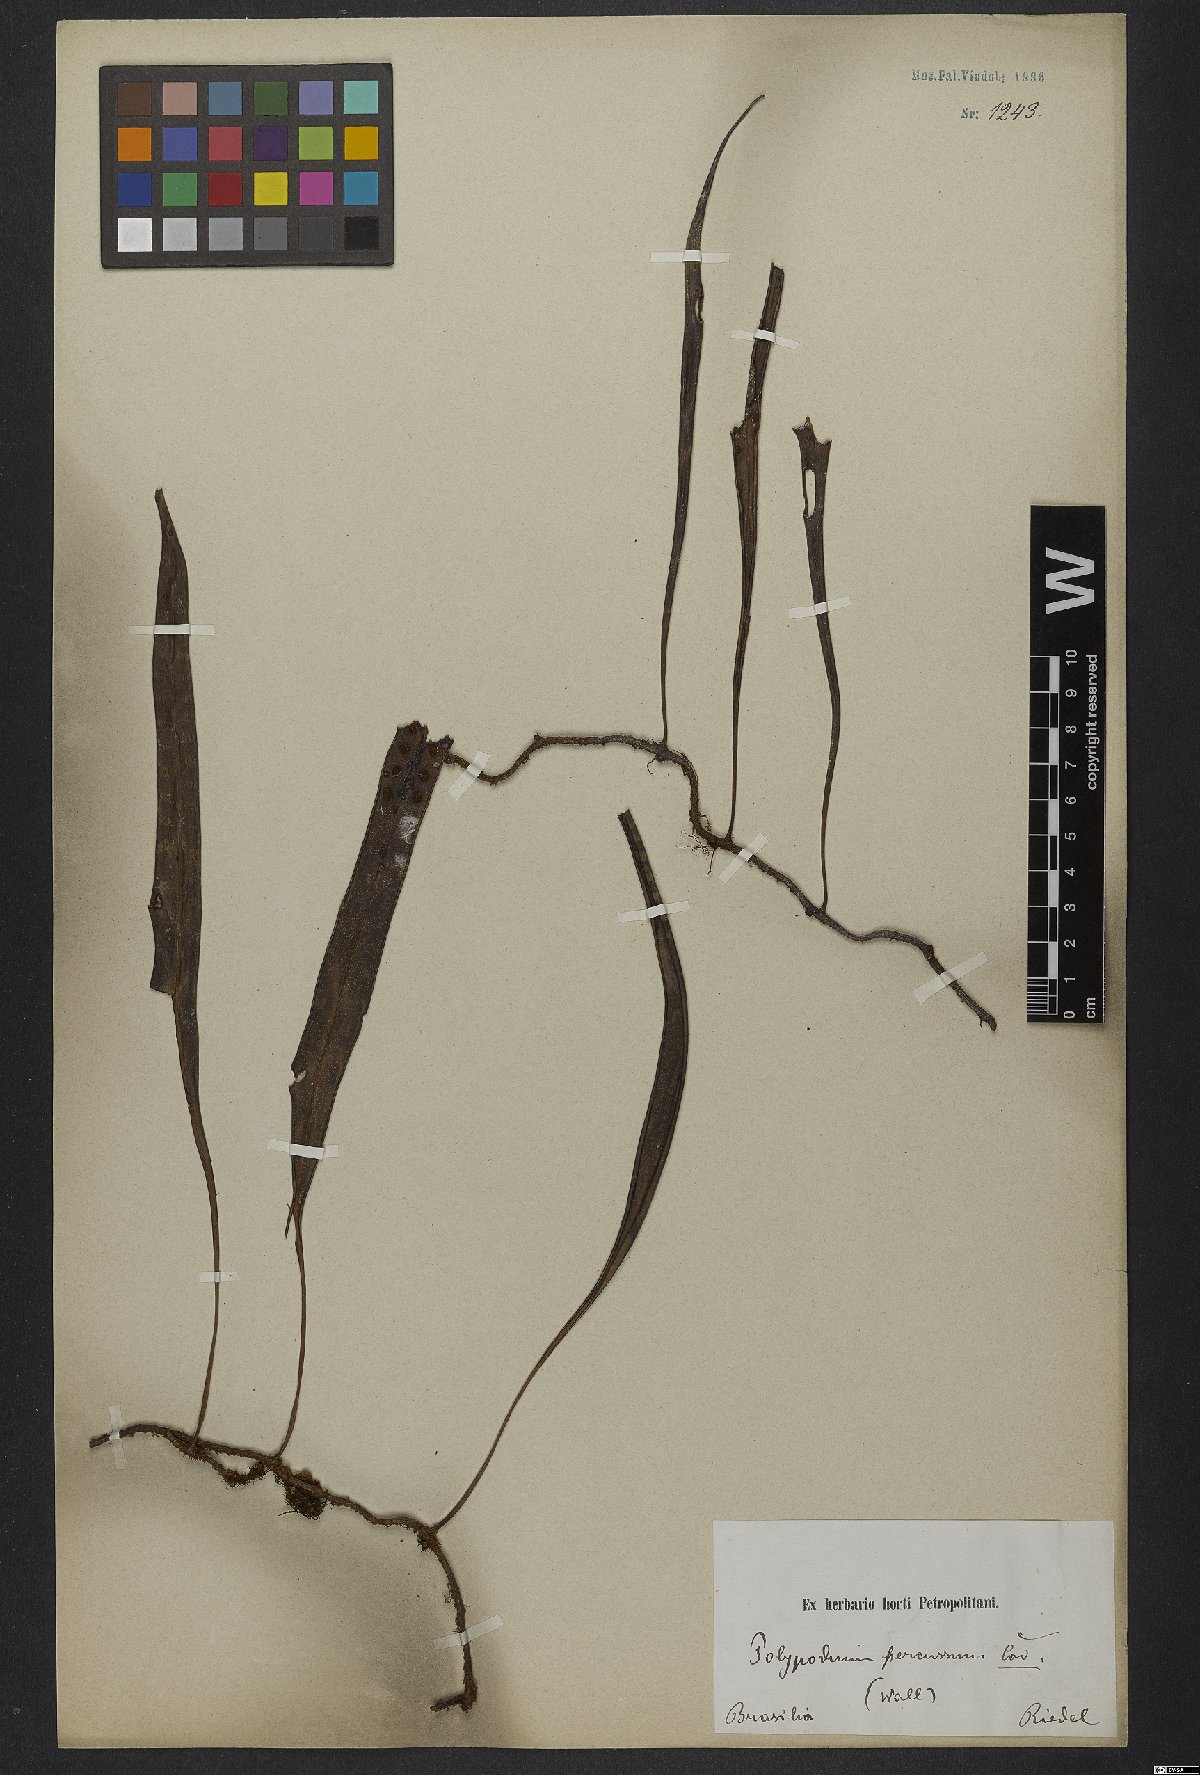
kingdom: Plantae
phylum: Tracheophyta
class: Polypodiopsida
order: Polypodiales
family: Polypodiaceae
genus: Microgramma
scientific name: Microgramma percussa
